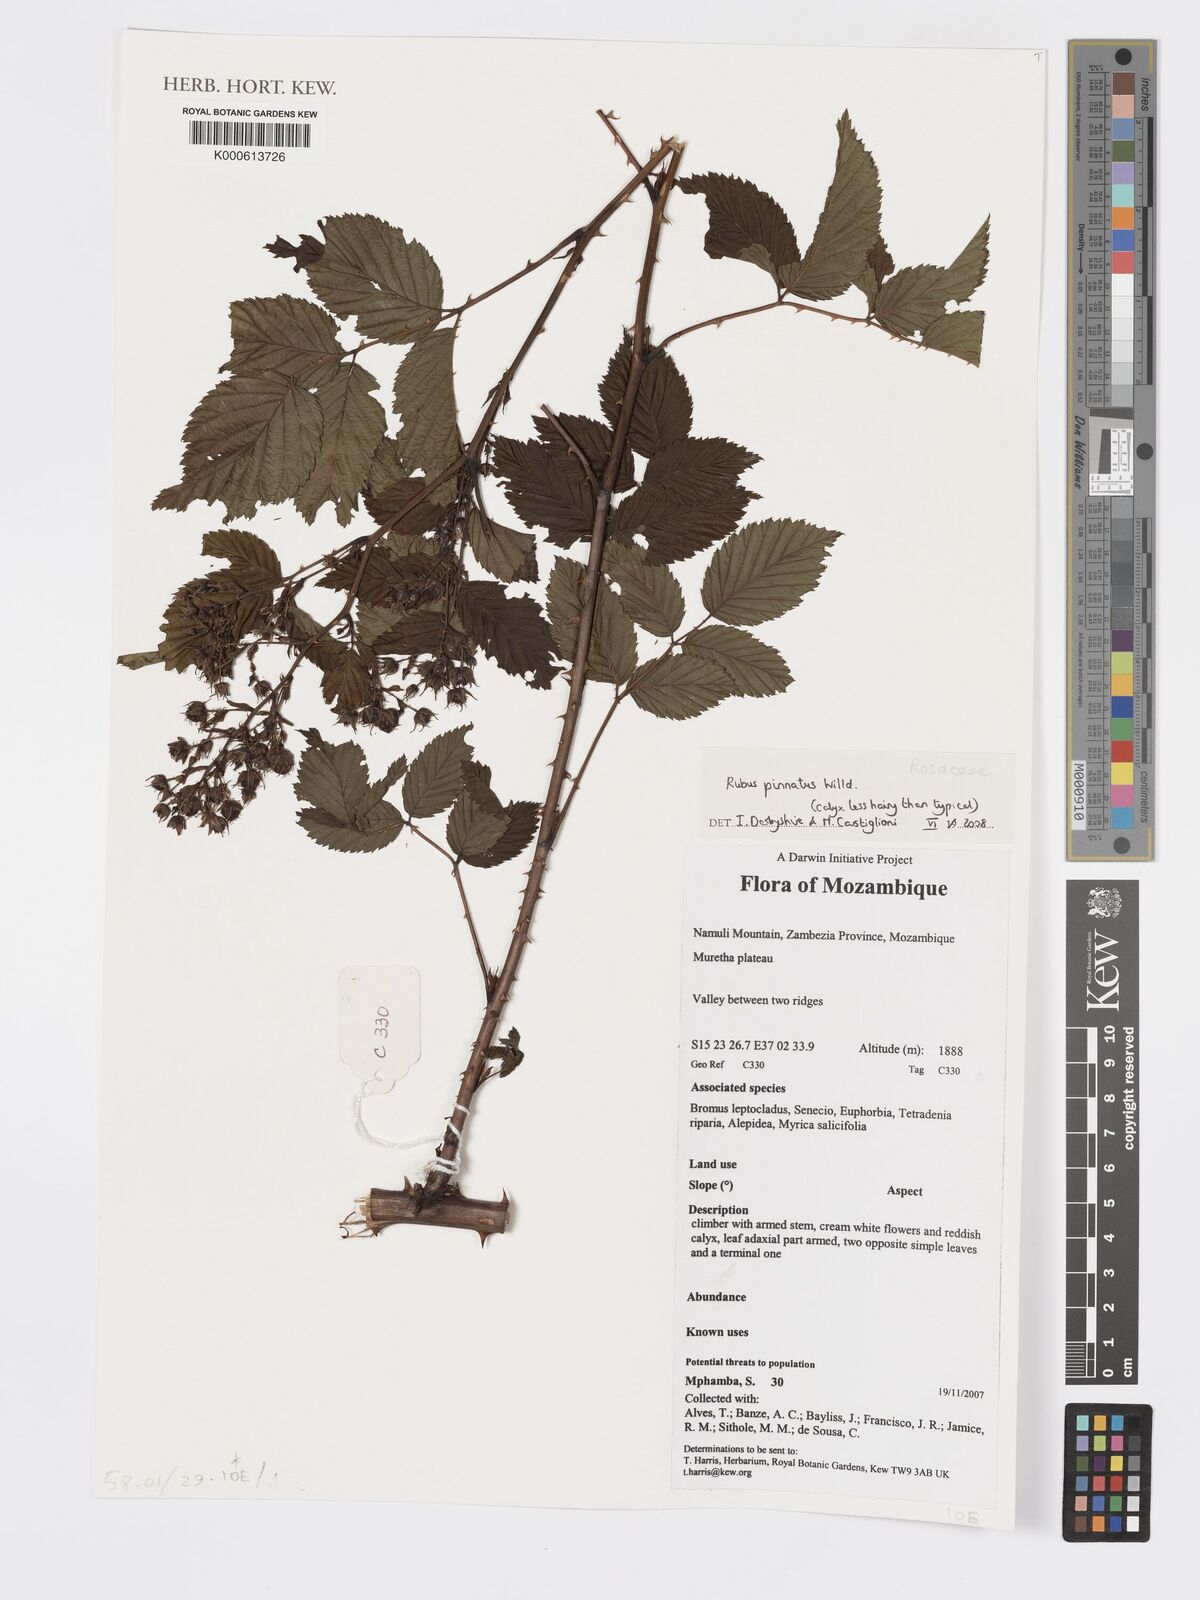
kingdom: Plantae
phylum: Tracheophyta
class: Magnoliopsida
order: Rosales
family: Rosaceae
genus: Rubus
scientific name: Rubus pinnatus
